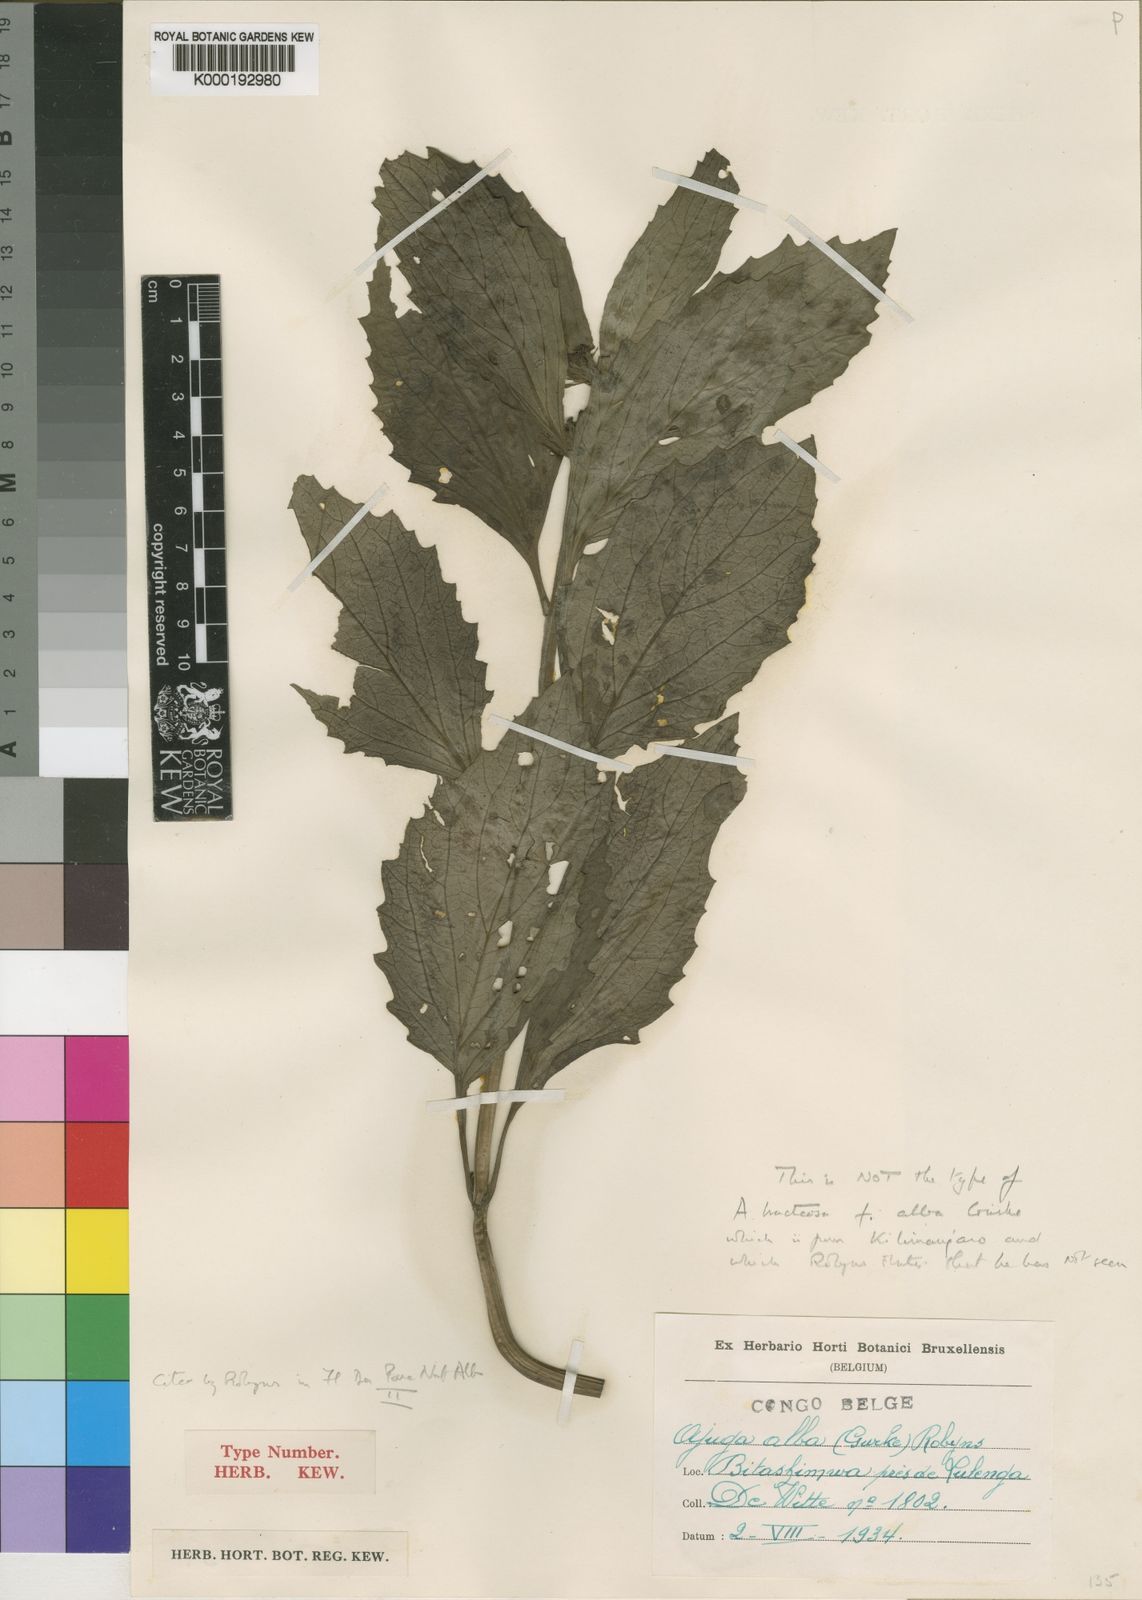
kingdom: Plantae
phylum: Tracheophyta
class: Magnoliopsida
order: Lamiales
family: Lamiaceae
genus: Ajuga
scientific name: Ajuga
